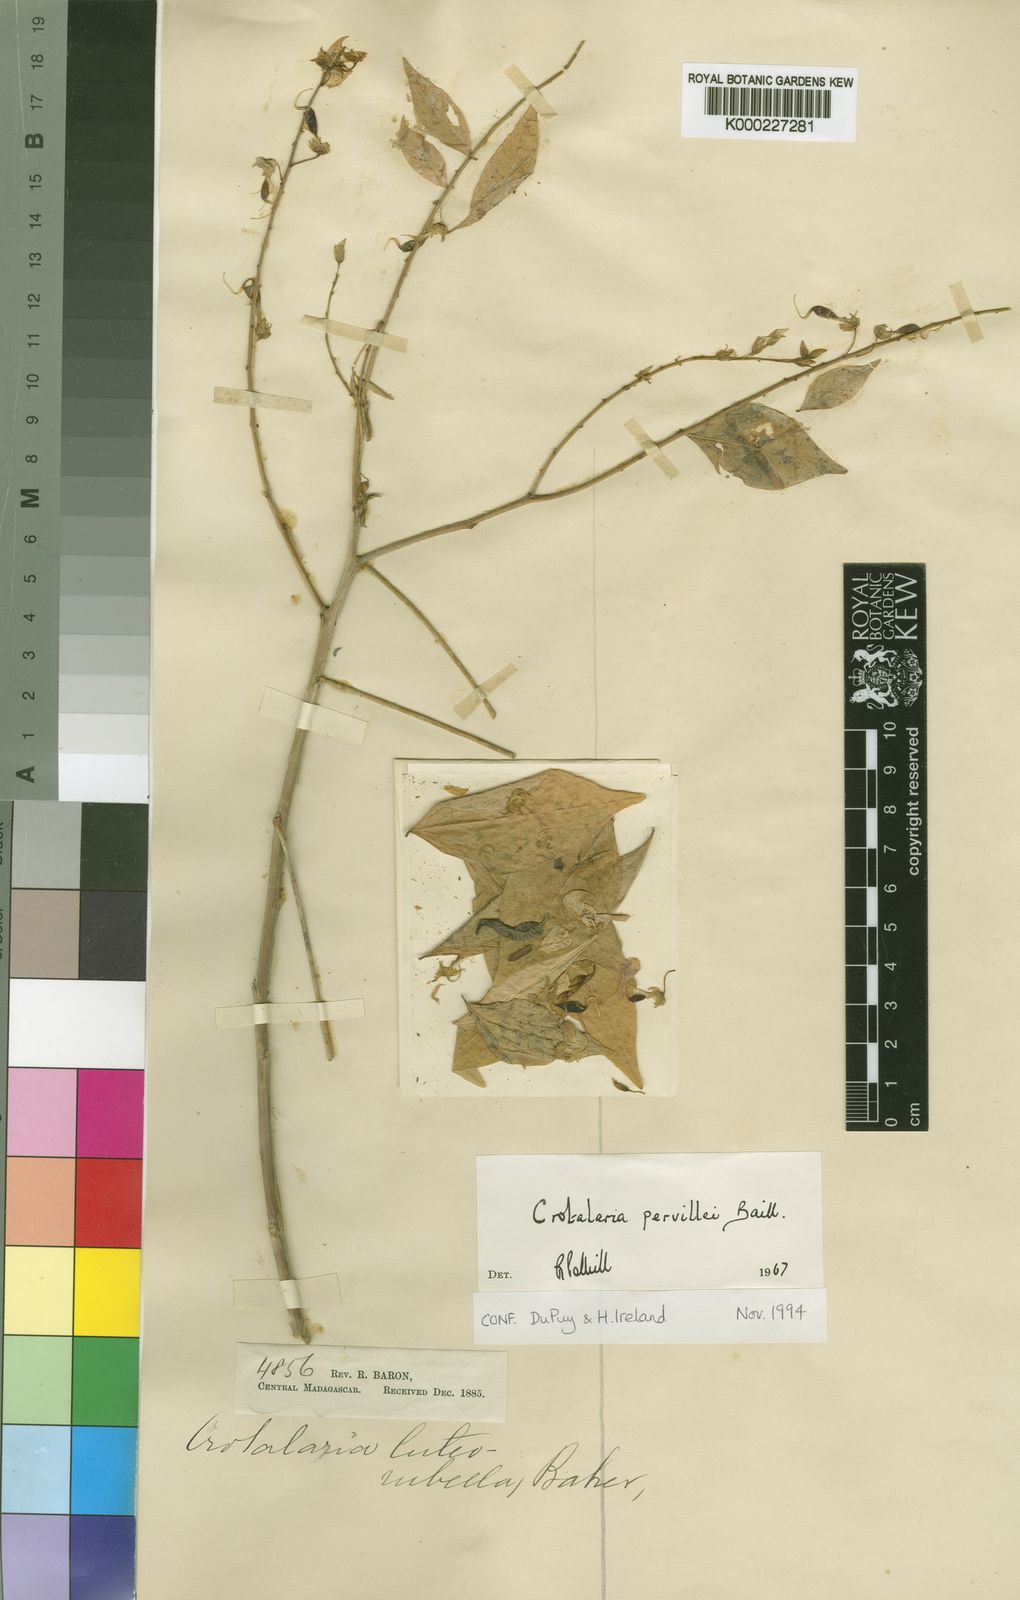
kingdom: Plantae
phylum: Tracheophyta
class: Magnoliopsida
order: Fabales
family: Fabaceae
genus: Crotalaria
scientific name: Crotalaria pervillei
